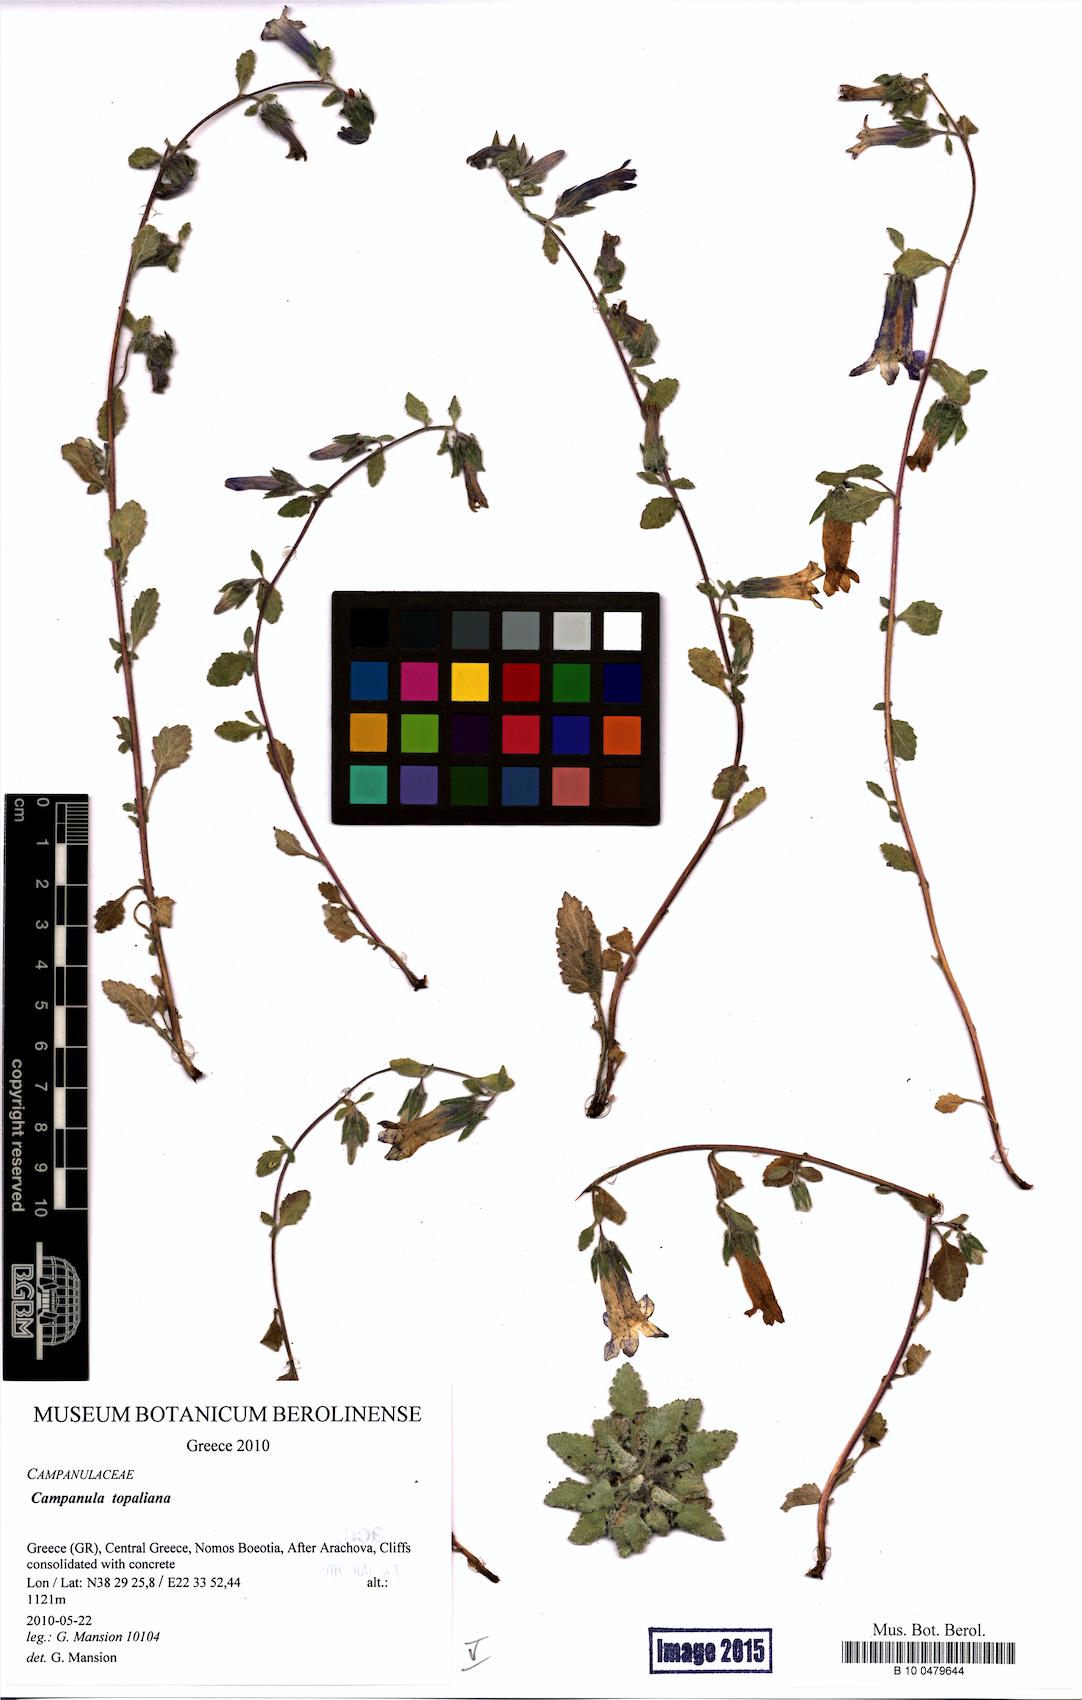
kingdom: Plantae
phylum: Tracheophyta
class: Magnoliopsida
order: Asterales
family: Campanulaceae
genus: Campanula
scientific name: Campanula topaliana
